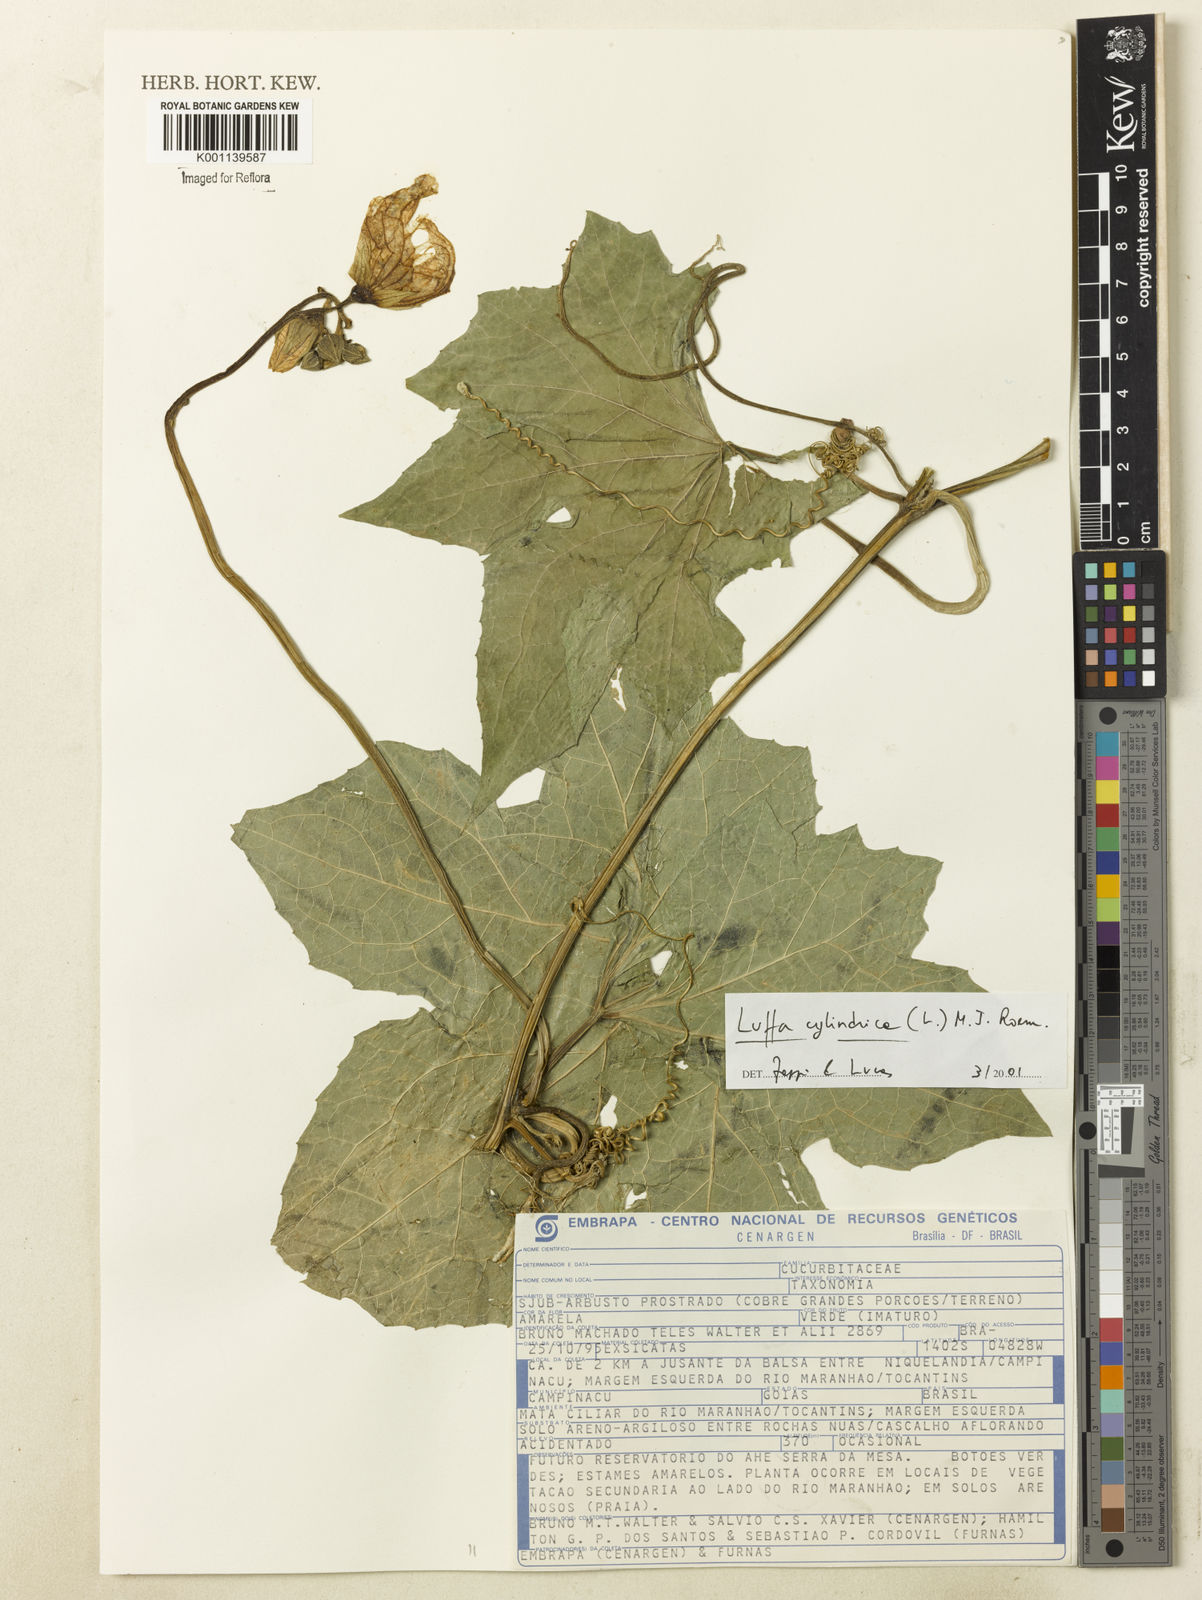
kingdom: Plantae
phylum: Tracheophyta
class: Magnoliopsida
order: Cucurbitales
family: Cucurbitaceae
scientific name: Cucurbitaceae
